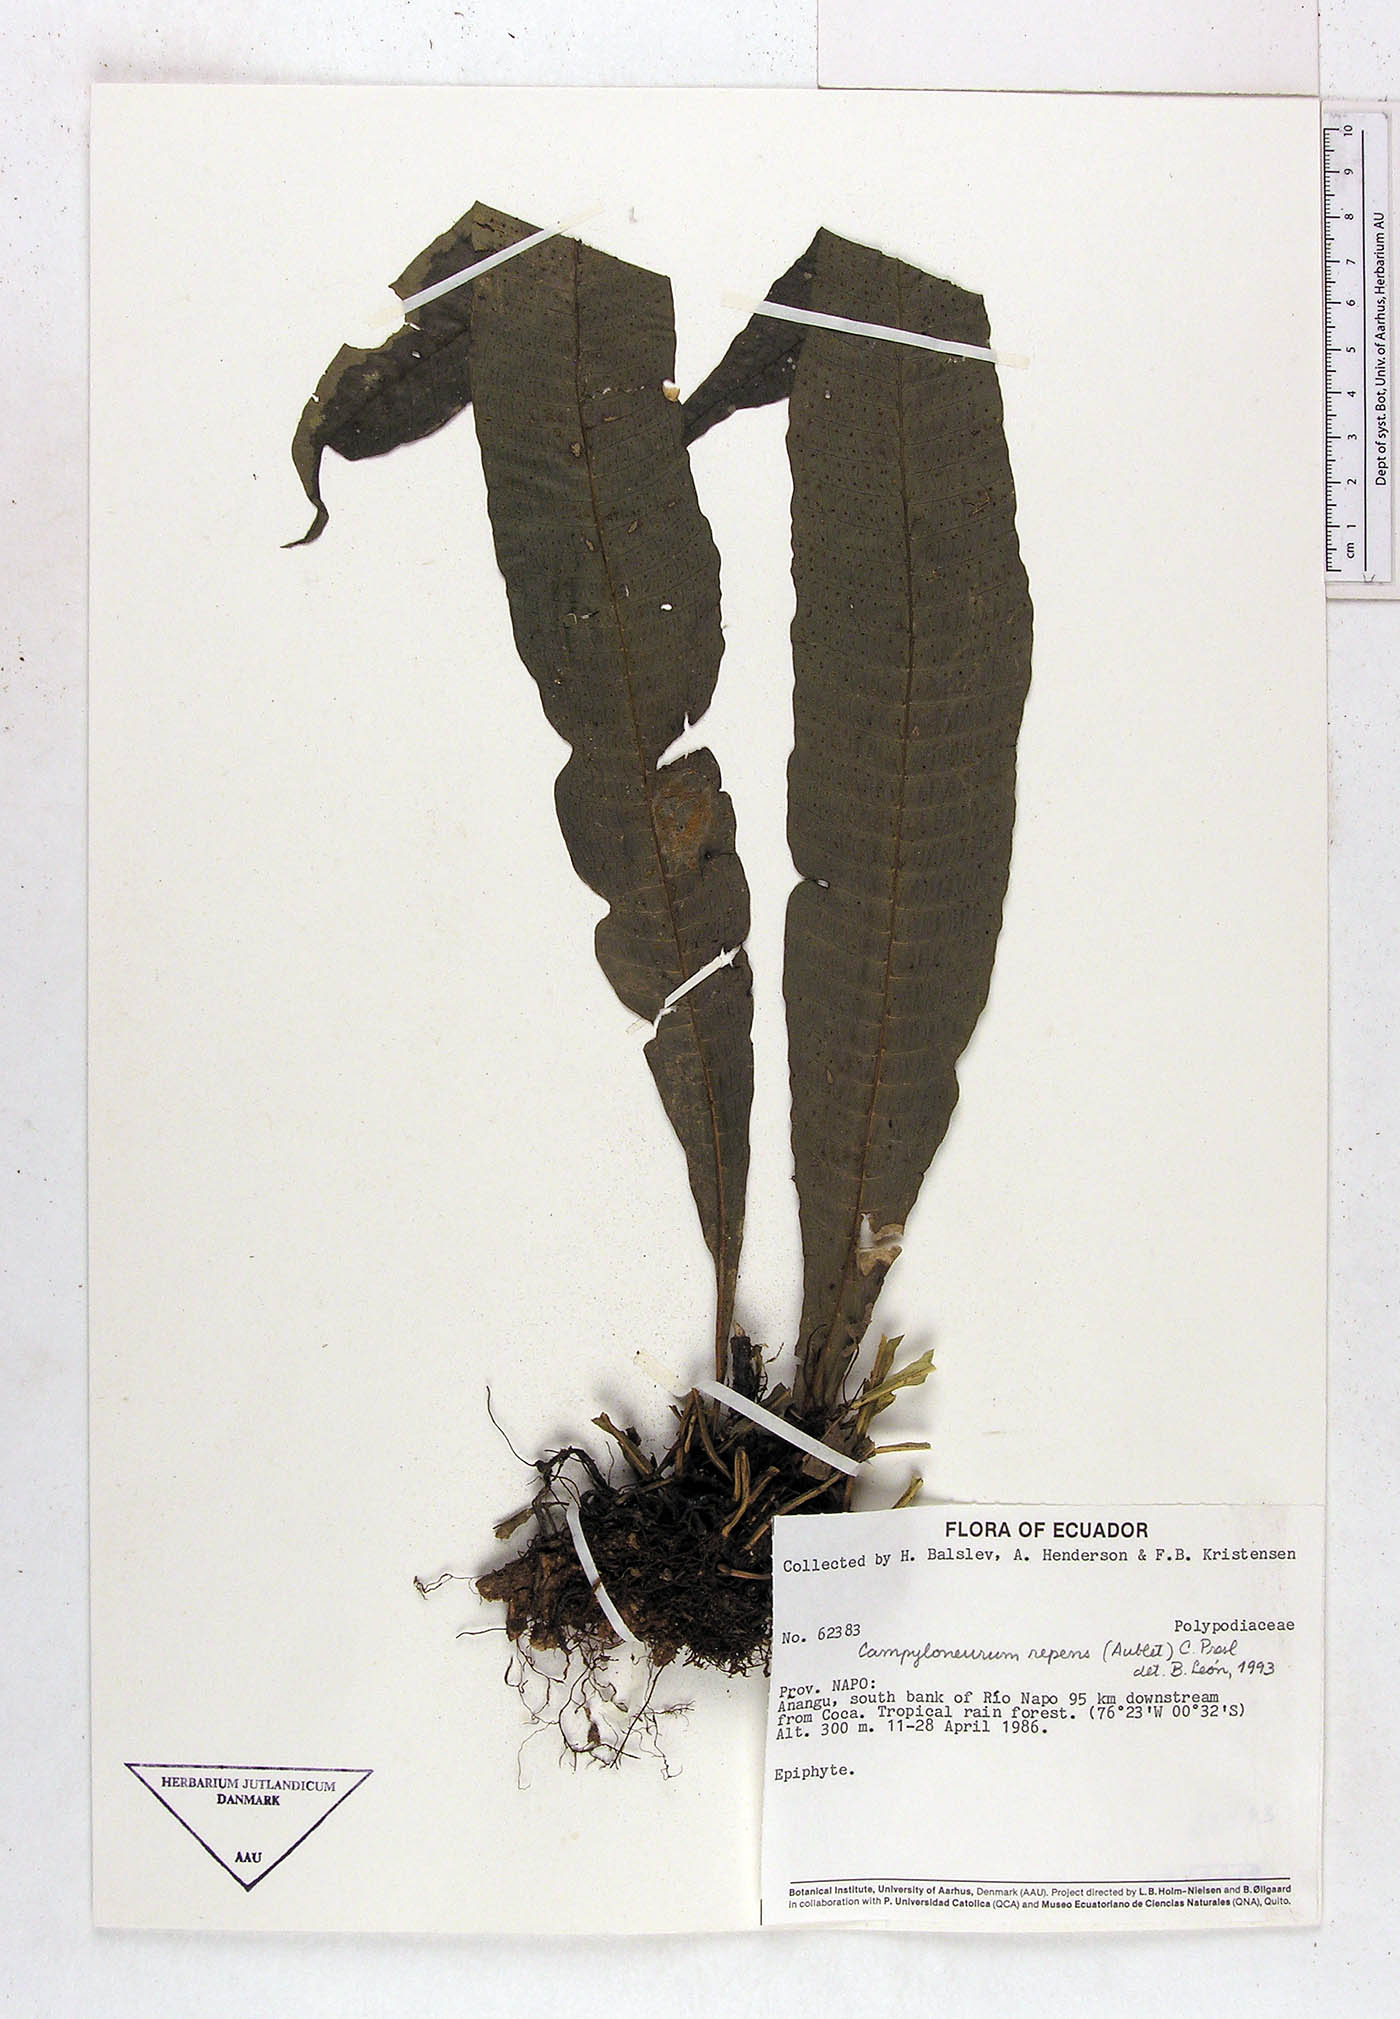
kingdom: Plantae
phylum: Tracheophyta
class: Polypodiopsida
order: Polypodiales
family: Polypodiaceae
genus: Campyloneurum
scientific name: Campyloneurum repens
